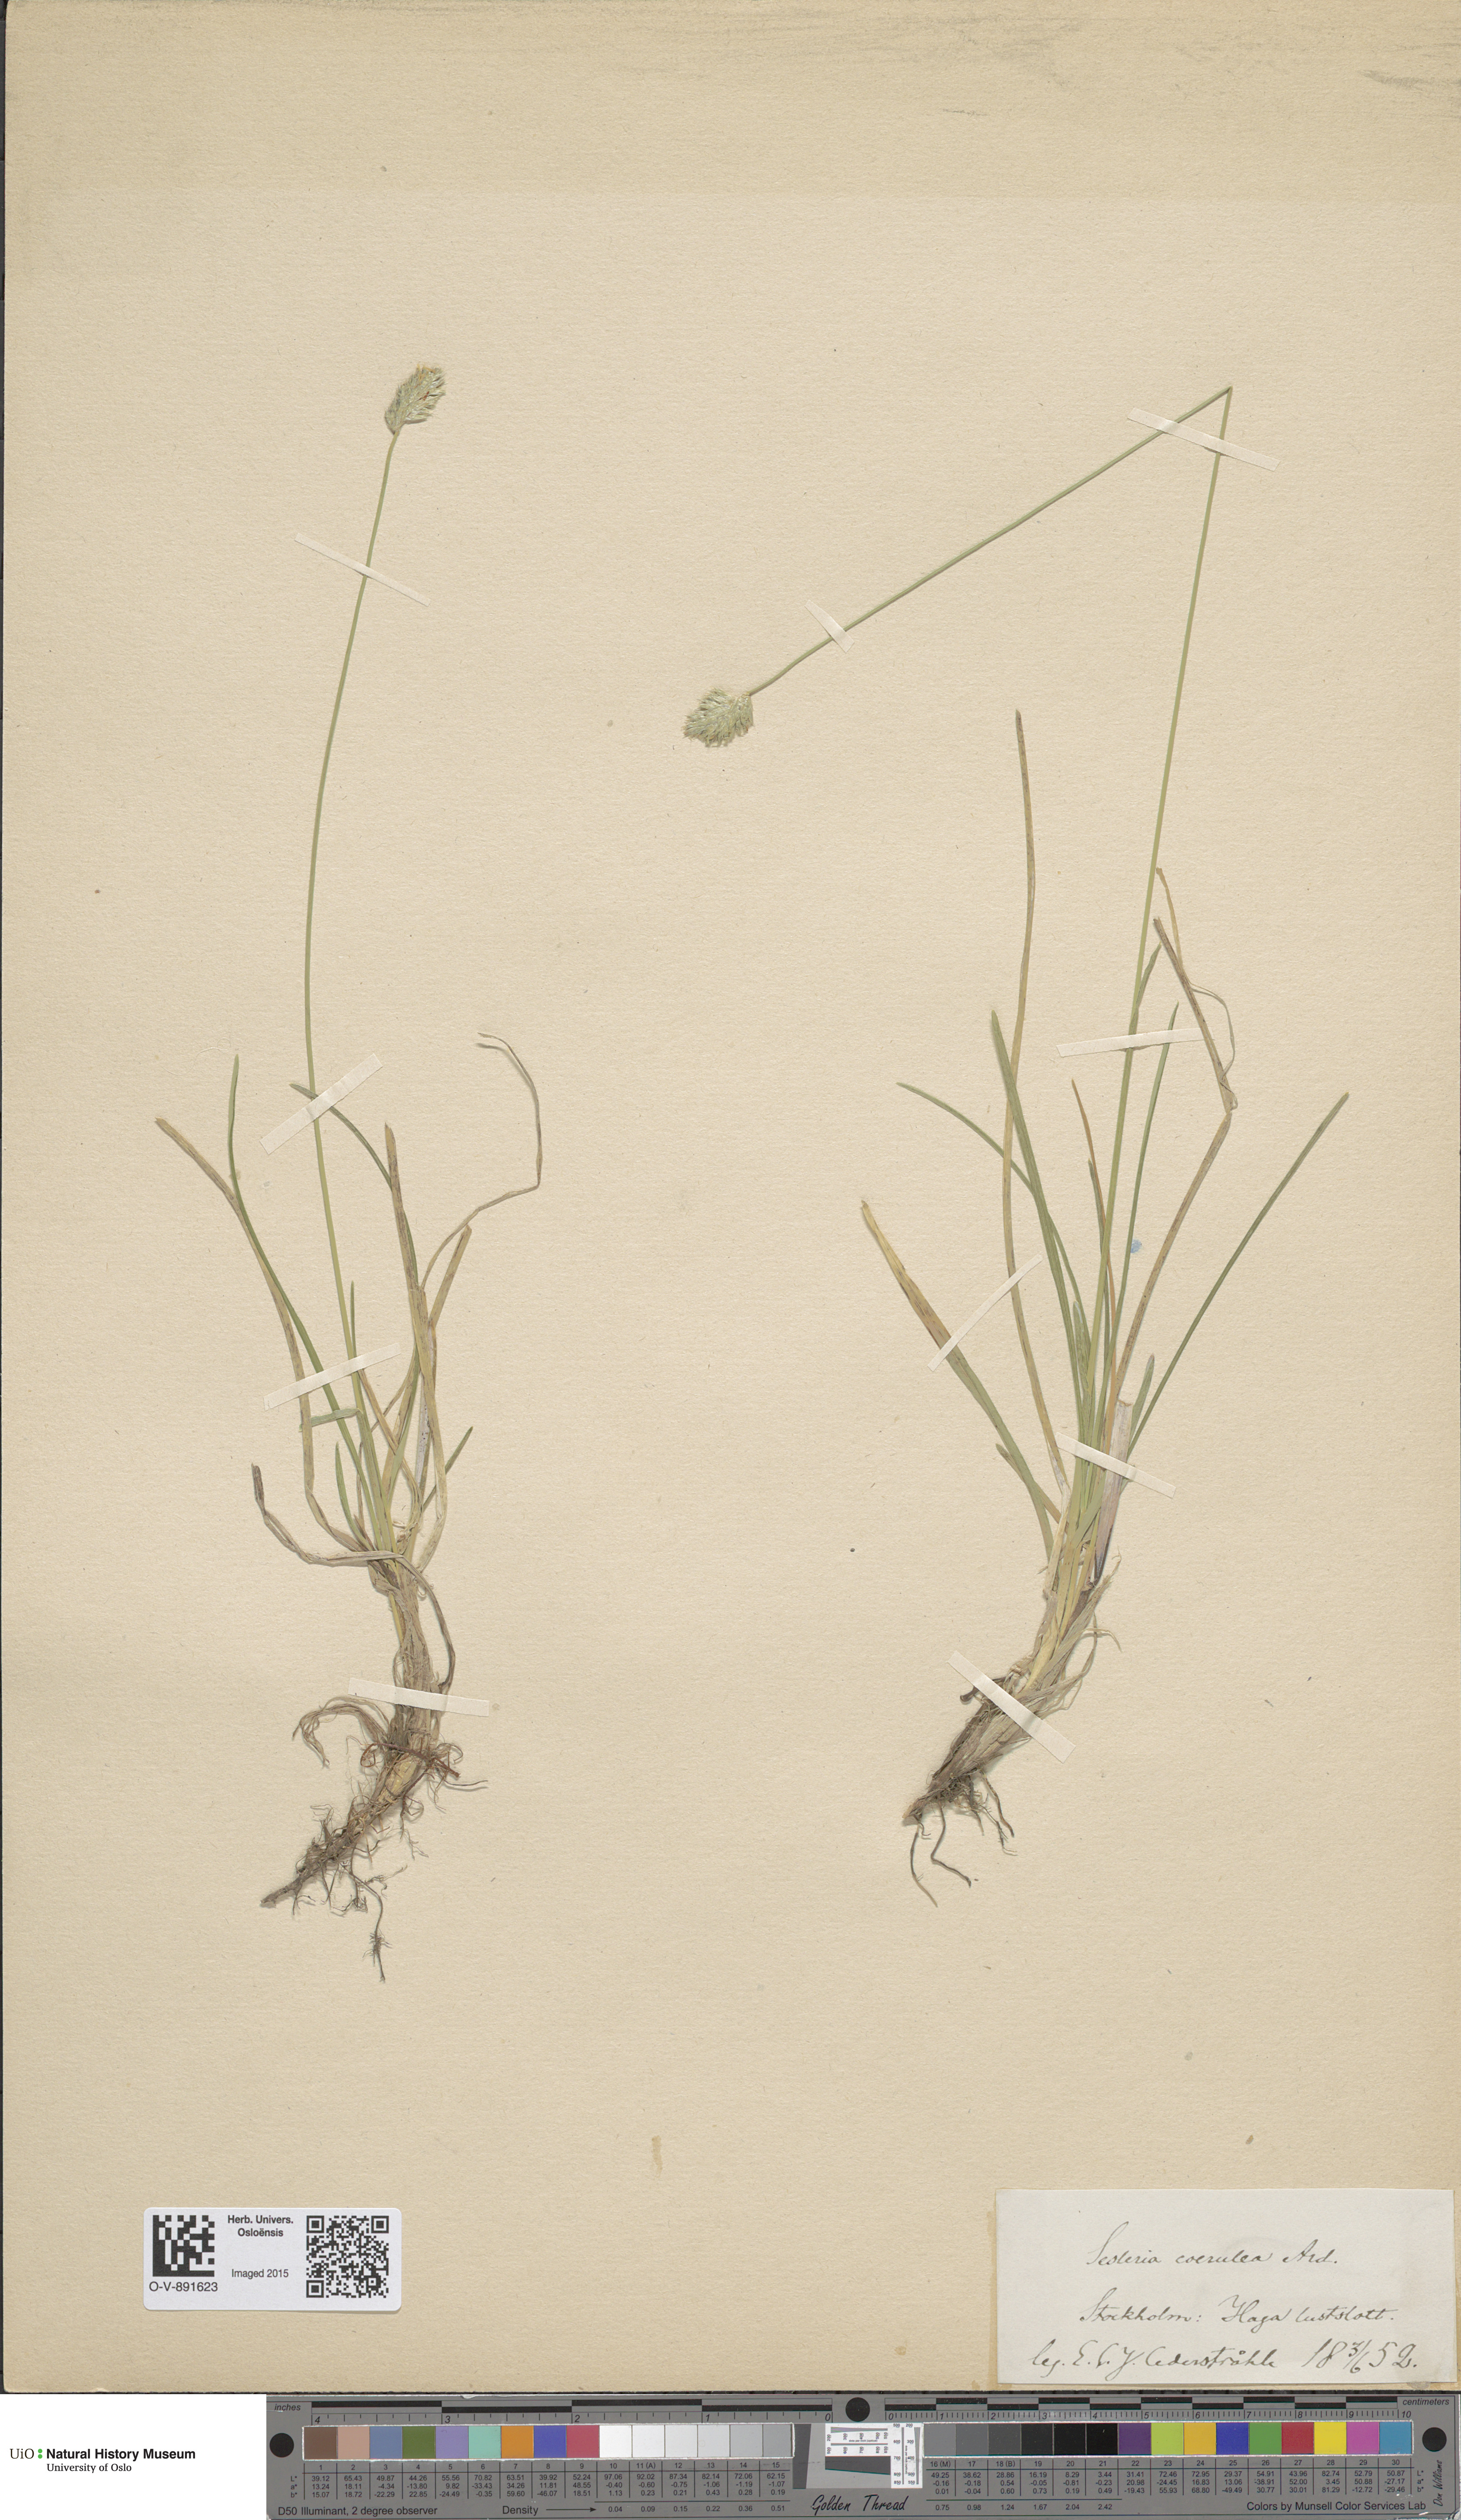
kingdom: Plantae
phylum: Tracheophyta
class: Liliopsida
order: Poales
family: Poaceae
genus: Sesleria
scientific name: Sesleria uliginosa
